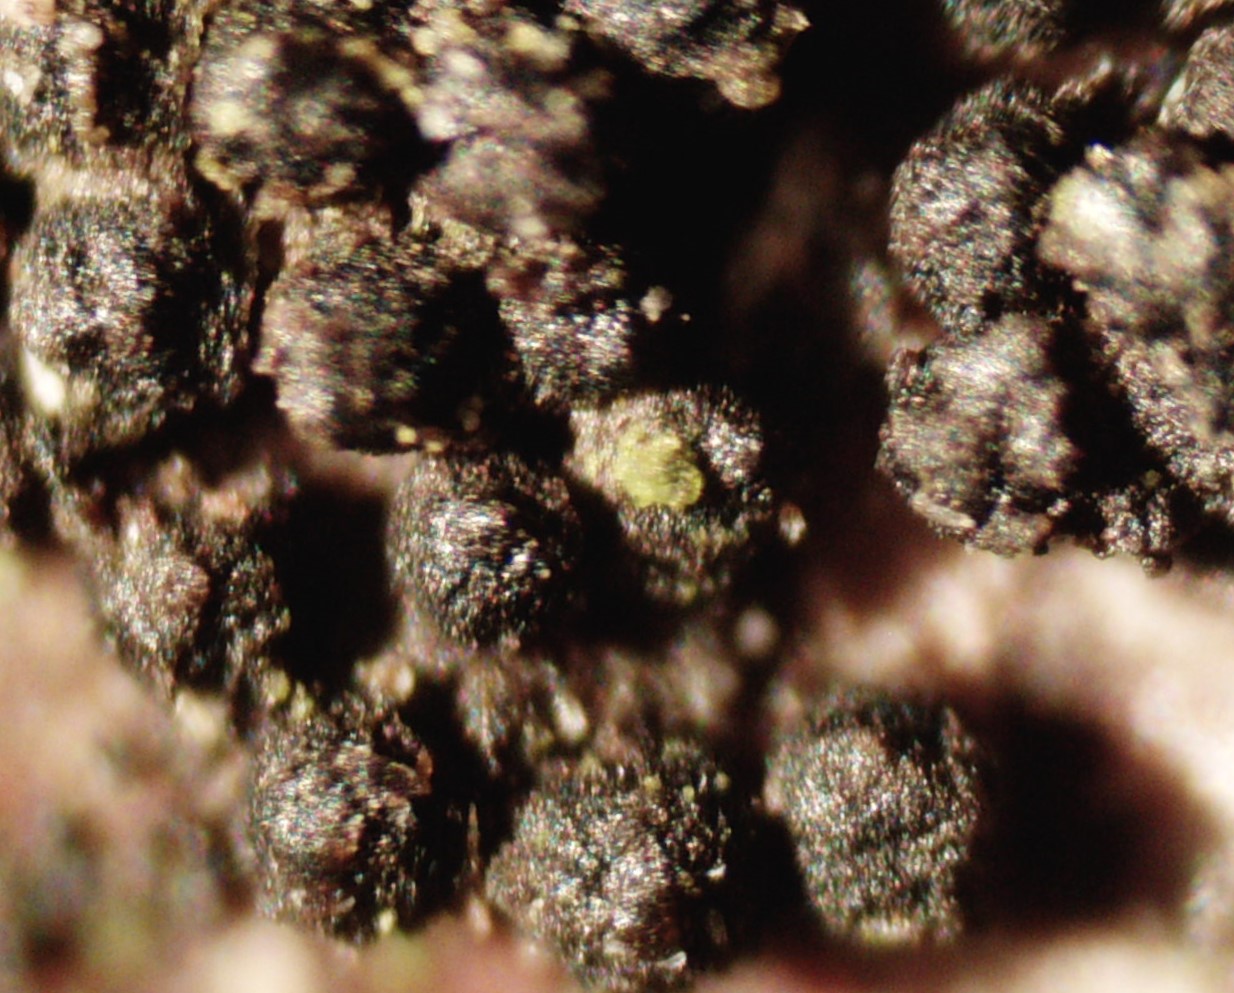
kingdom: Fungi
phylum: Ascomycota
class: Dothideomycetes
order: Pleosporales
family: Melanommataceae
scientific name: Melanommataceae
